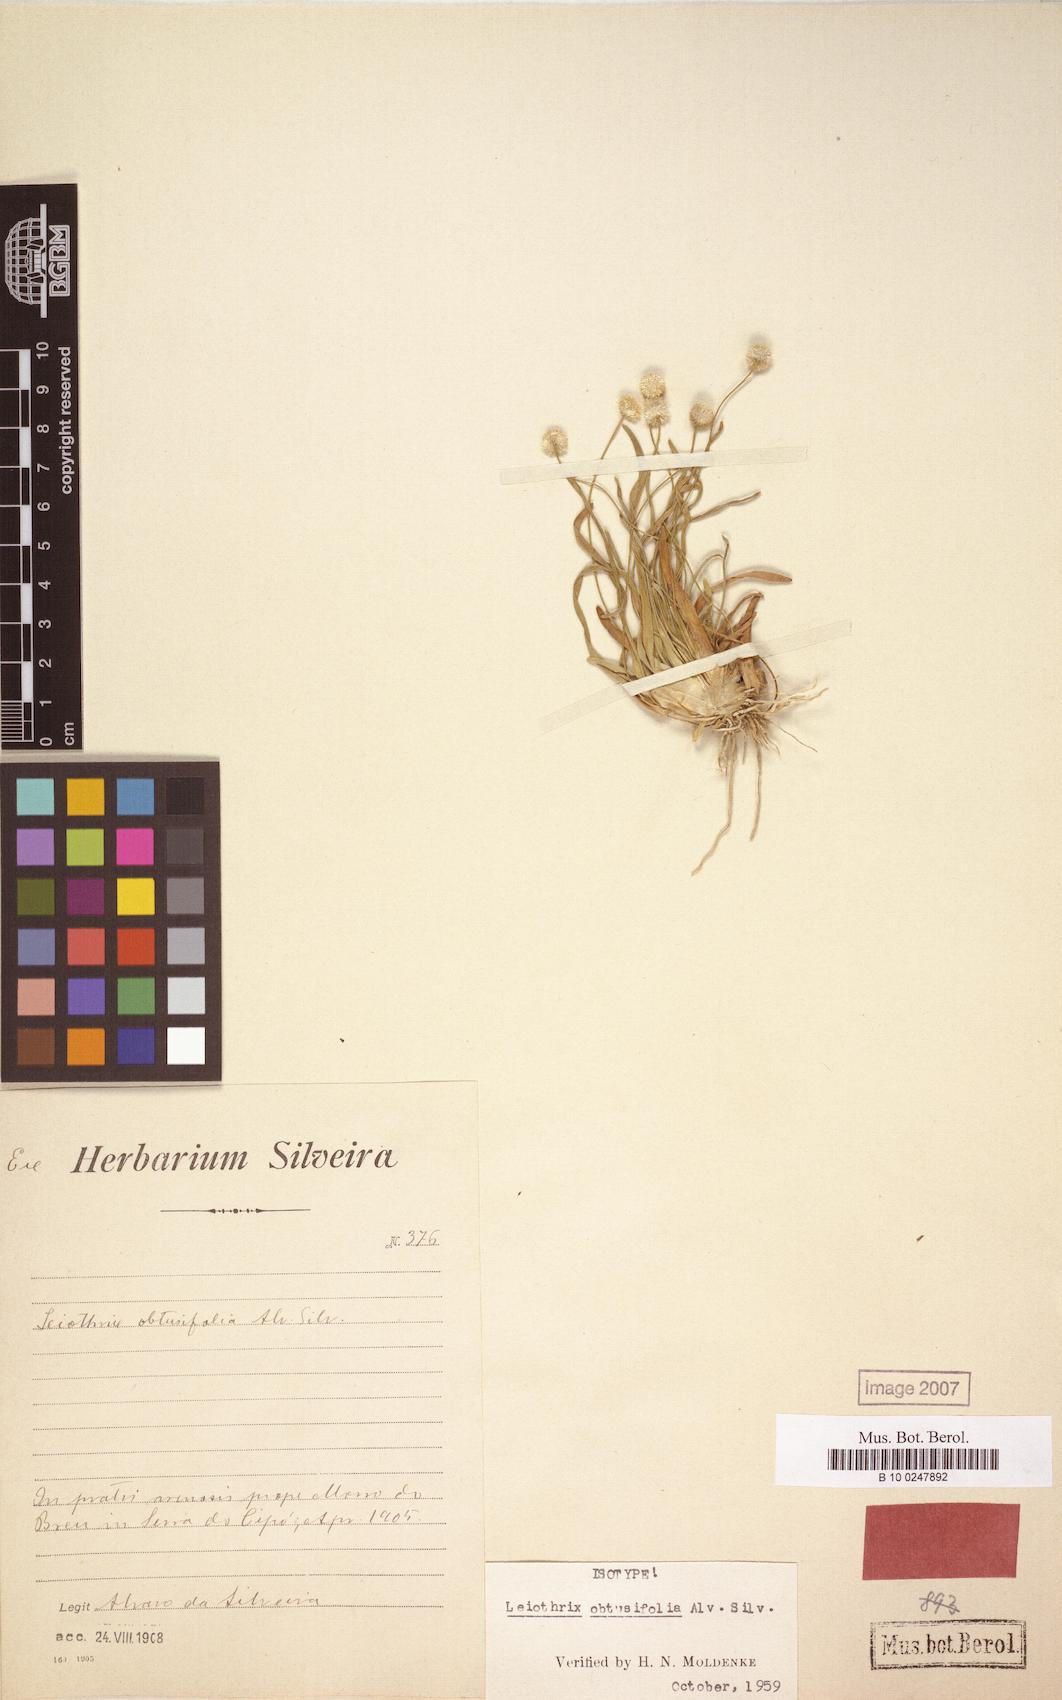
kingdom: Plantae
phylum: Tracheophyta
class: Liliopsida
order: Poales
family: Eriocaulaceae
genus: Leiothrix
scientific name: Leiothrix crassifolia
